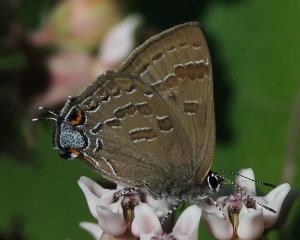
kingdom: Animalia
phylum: Arthropoda
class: Insecta
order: Lepidoptera
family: Lycaenidae
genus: Satyrium
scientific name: Satyrium calanus
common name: Banded Hairstreak
